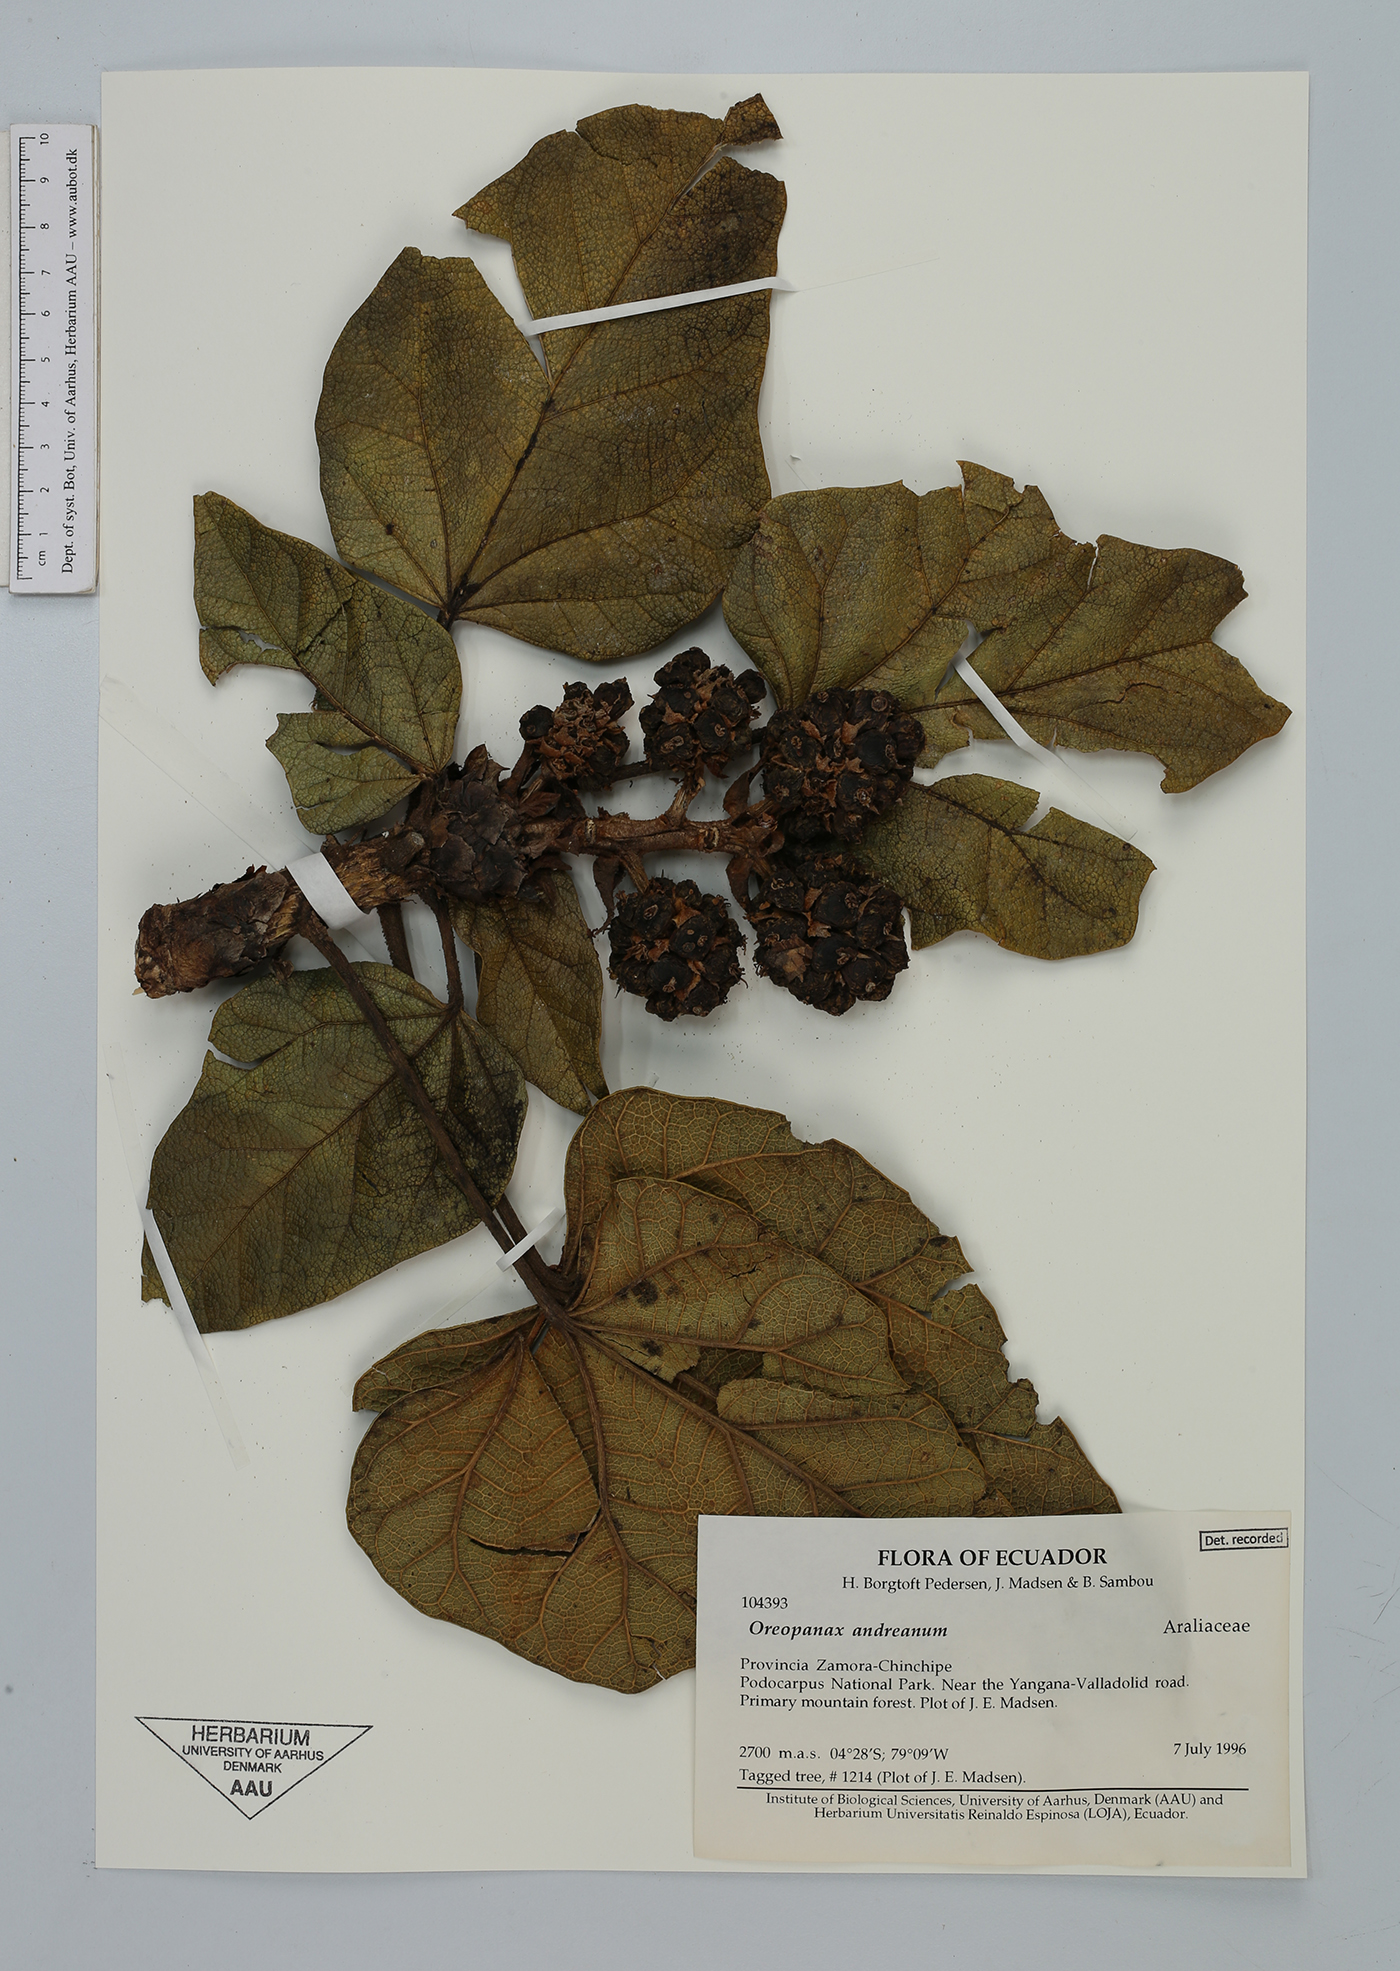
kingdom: Plantae
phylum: Tracheophyta
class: Magnoliopsida
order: Apiales
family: Araliaceae
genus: Oreopanax
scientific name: Oreopanax andreanus
